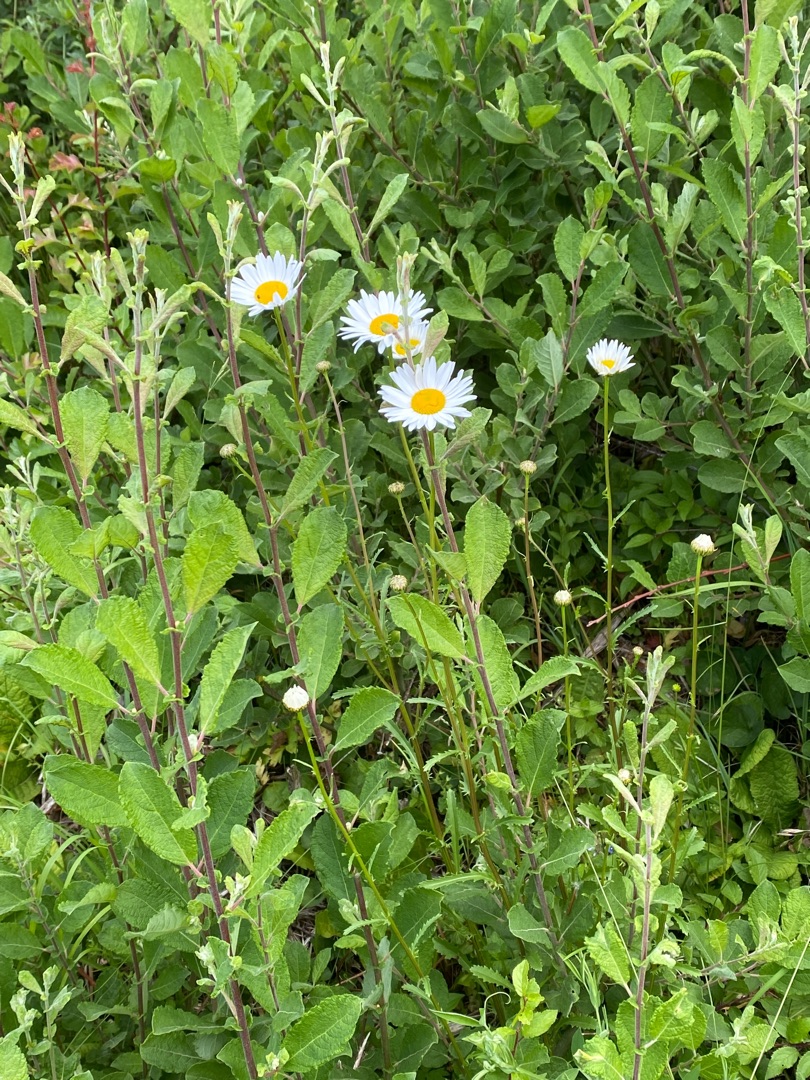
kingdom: Plantae
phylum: Tracheophyta
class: Magnoliopsida
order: Asterales
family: Asteraceae
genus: Leucanthemum
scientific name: Leucanthemum vulgare
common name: Hvid okseøje
